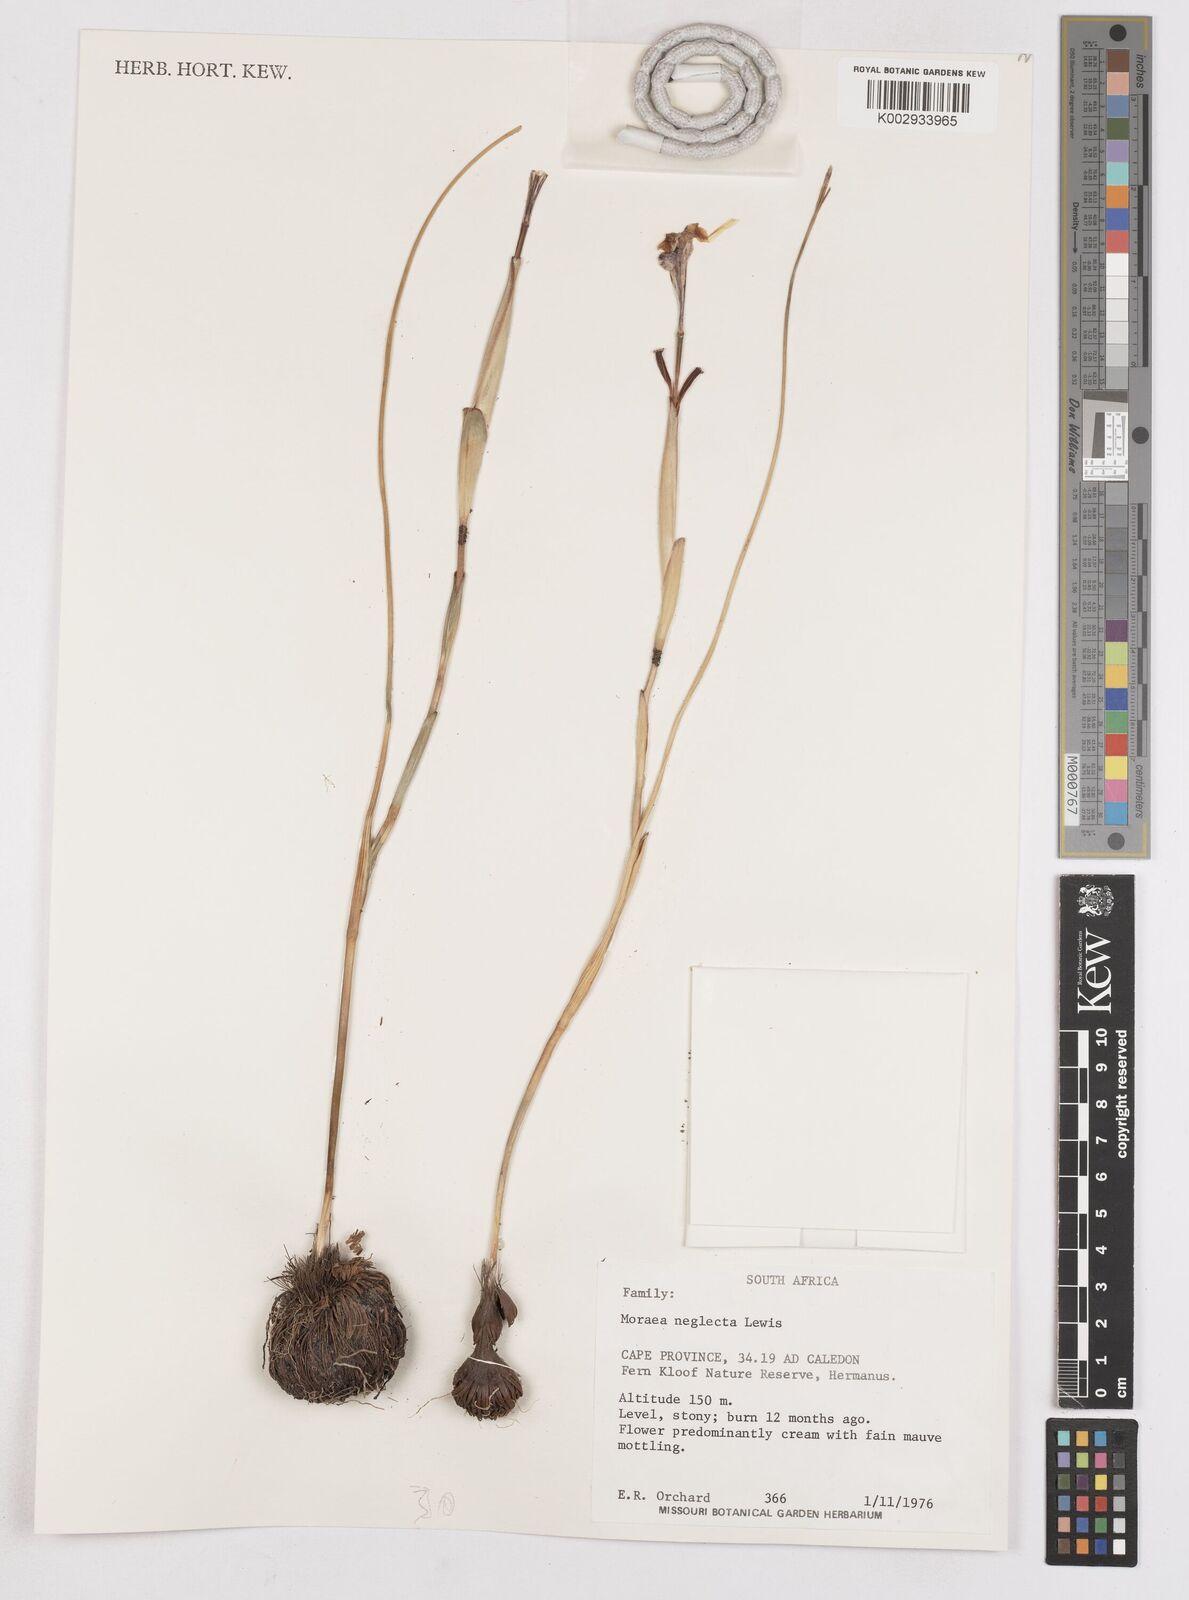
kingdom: Plantae
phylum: Tracheophyta
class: Liliopsida
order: Asparagales
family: Iridaceae
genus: Moraea
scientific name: Moraea neglecta
